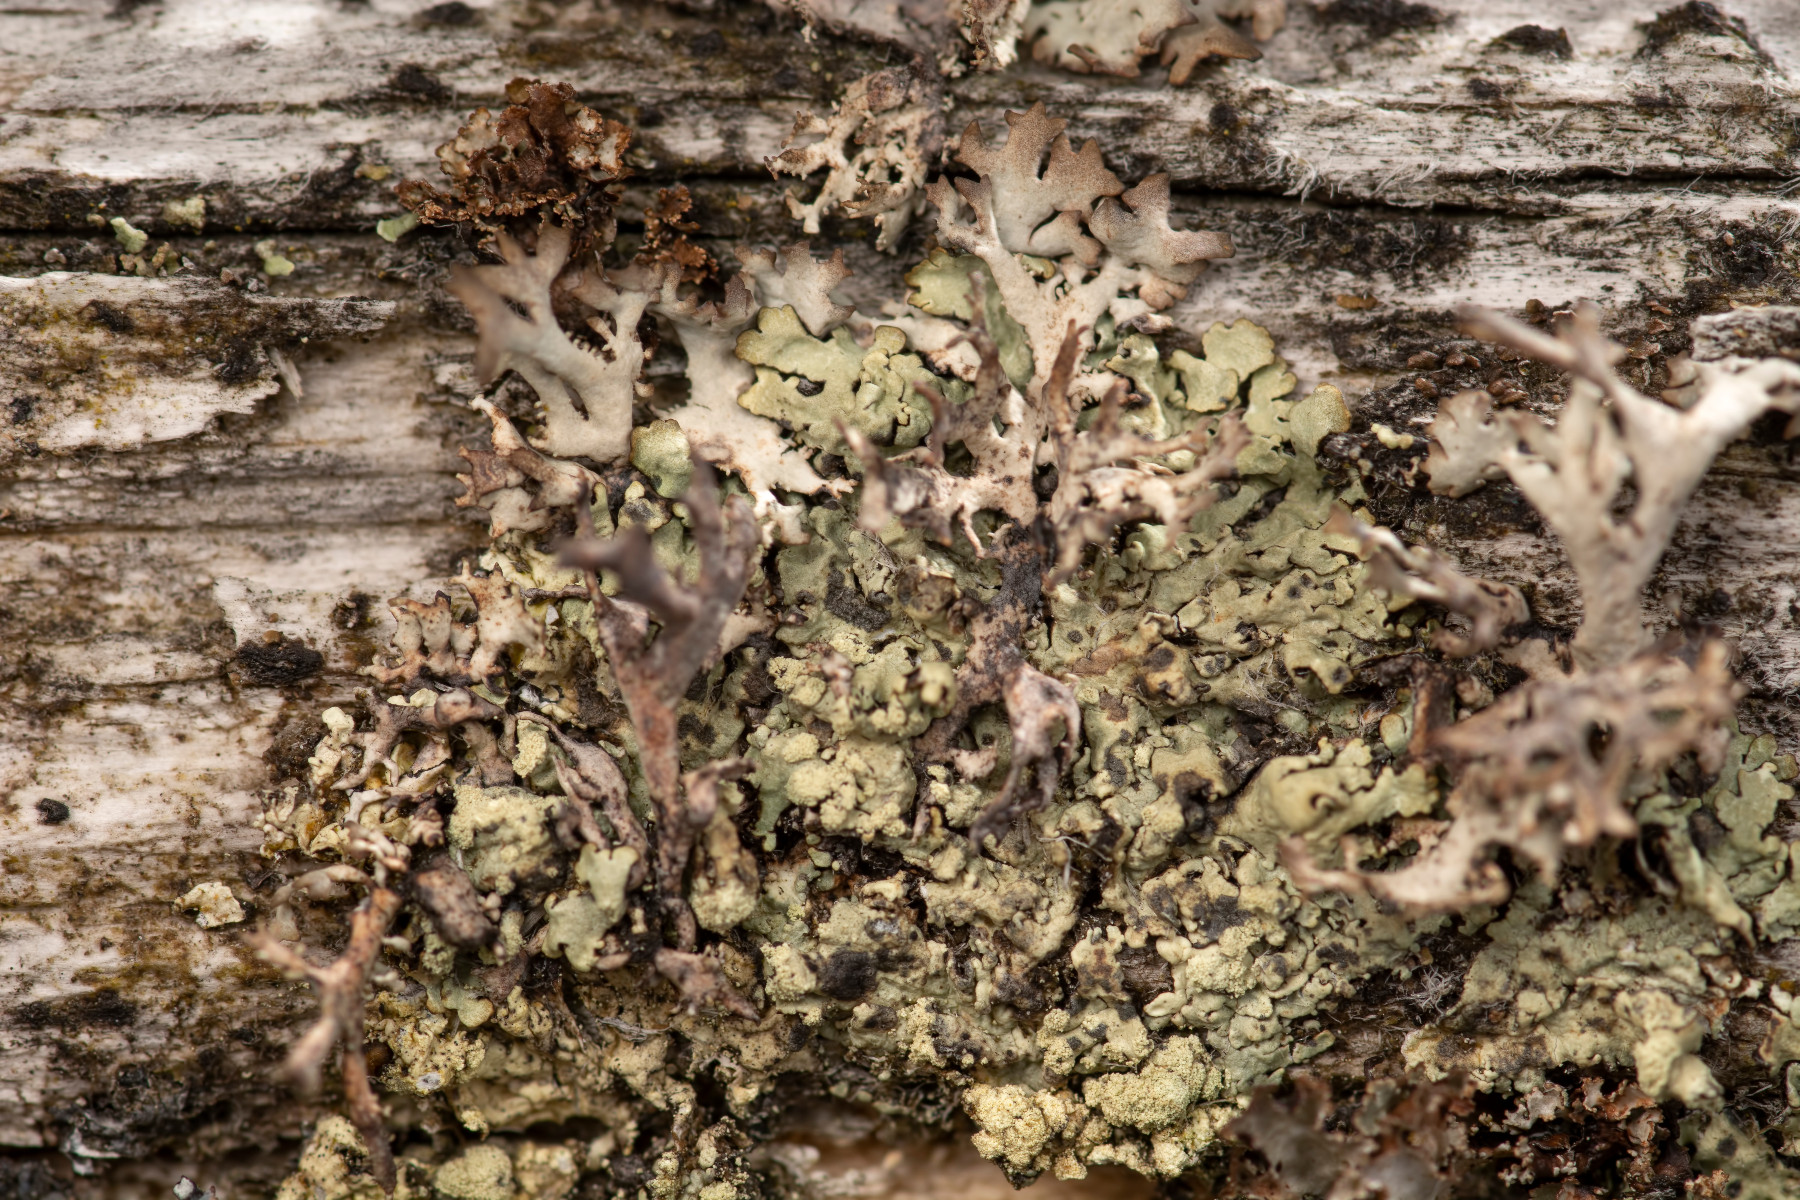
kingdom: Fungi
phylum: Ascomycota
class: Lecanoromycetes
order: Lecanorales
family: Parmeliaceae
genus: Parmeliopsis
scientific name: Parmeliopsis ambigua
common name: gul stolpelav
